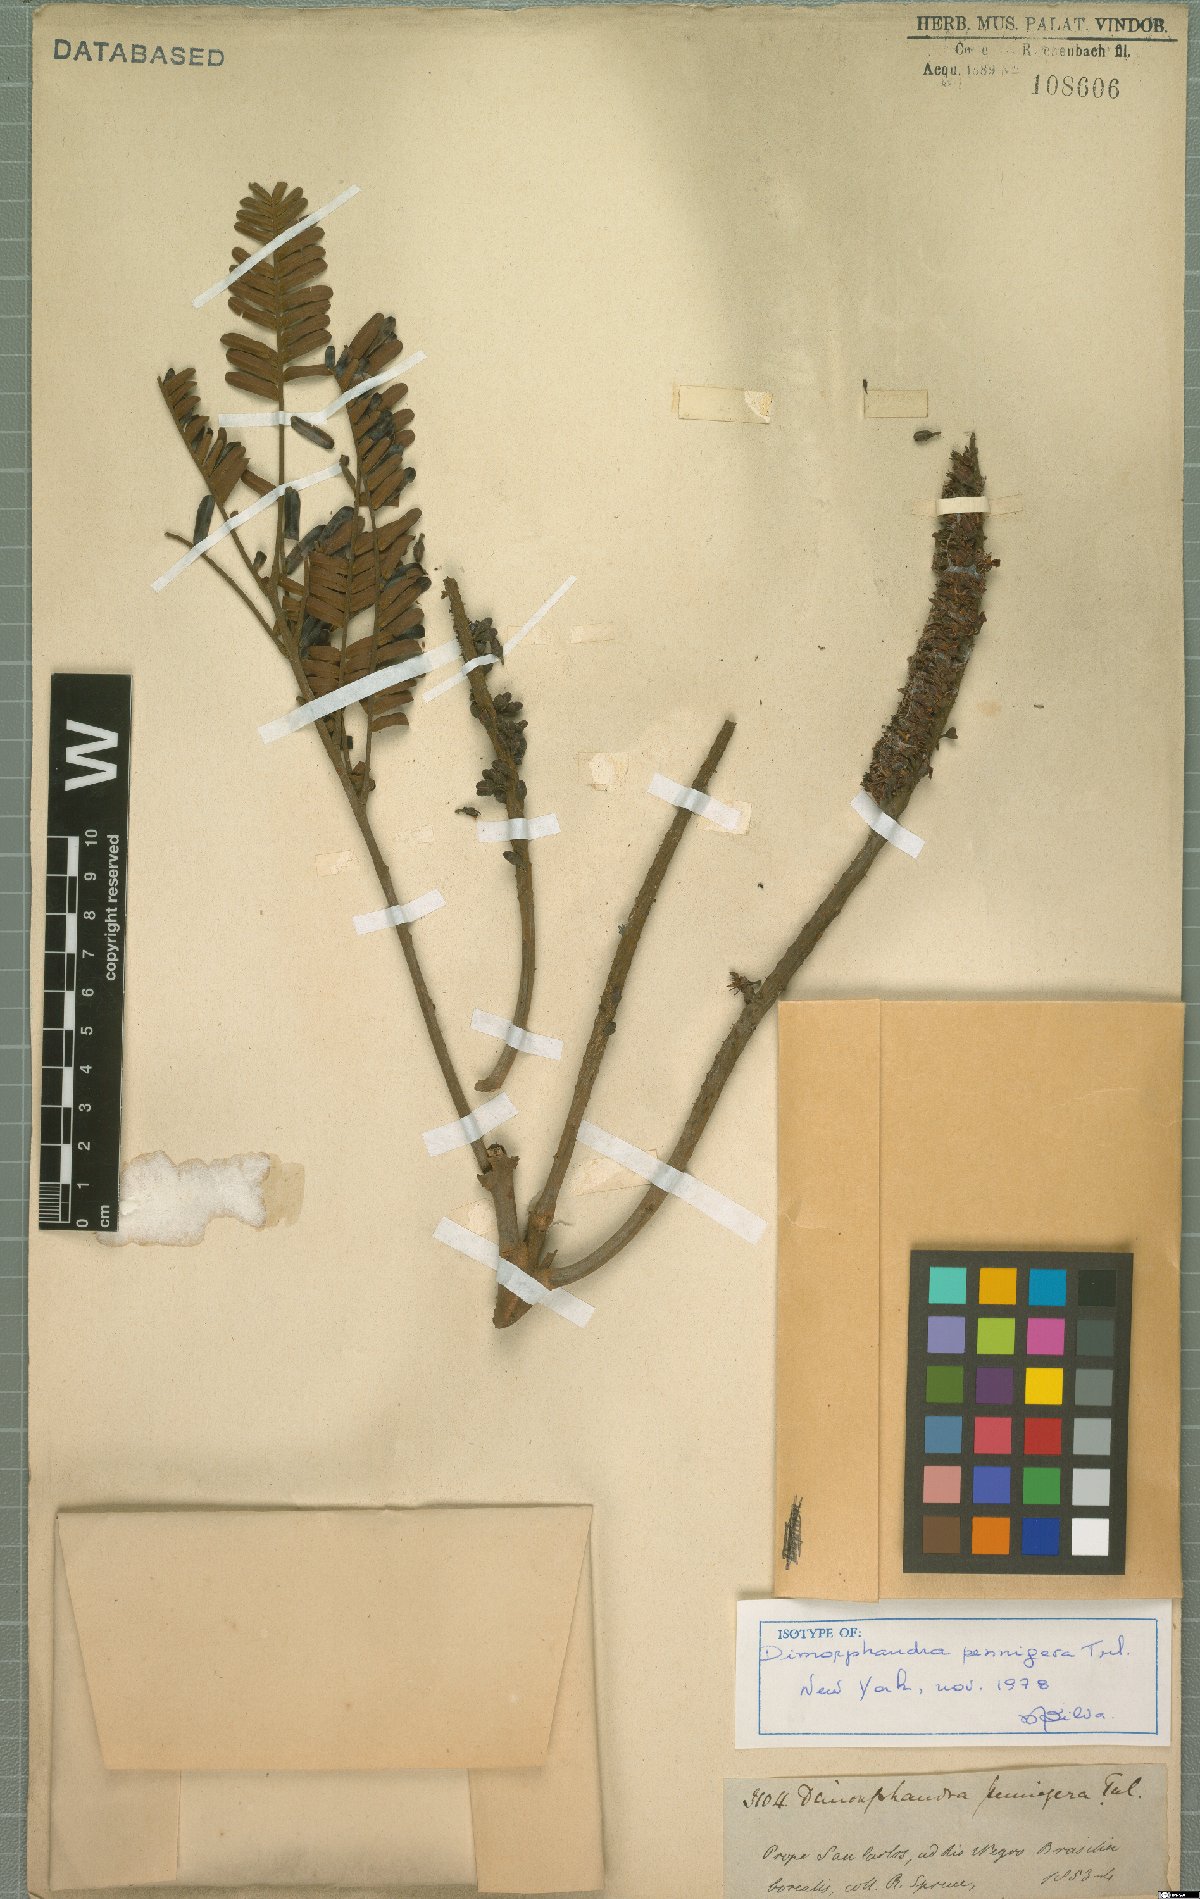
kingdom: Plantae
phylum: Tracheophyta
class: Magnoliopsida
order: Fabales
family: Fabaceae
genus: Dimorphandra
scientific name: Dimorphandra pennigera
